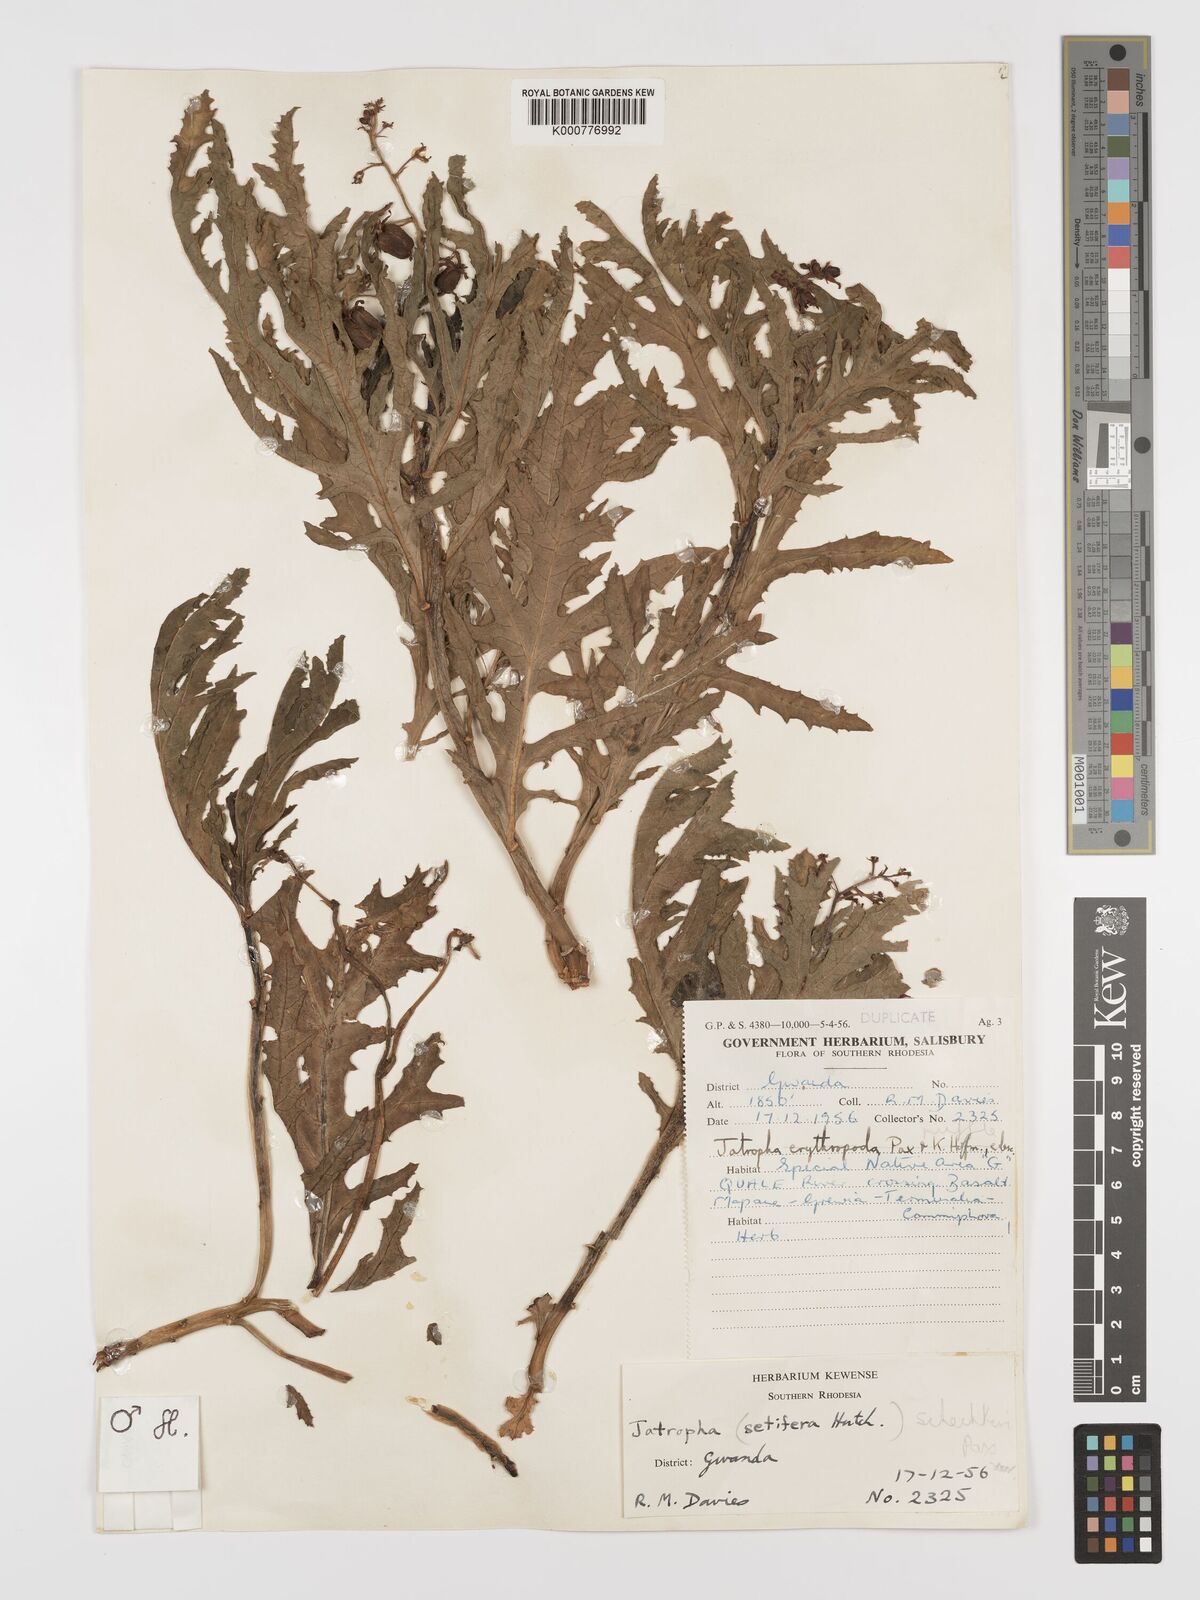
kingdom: Plantae
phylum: Tracheophyta
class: Magnoliopsida
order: Malpighiales
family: Euphorbiaceae
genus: Jatropha
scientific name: Jatropha schlechteri
